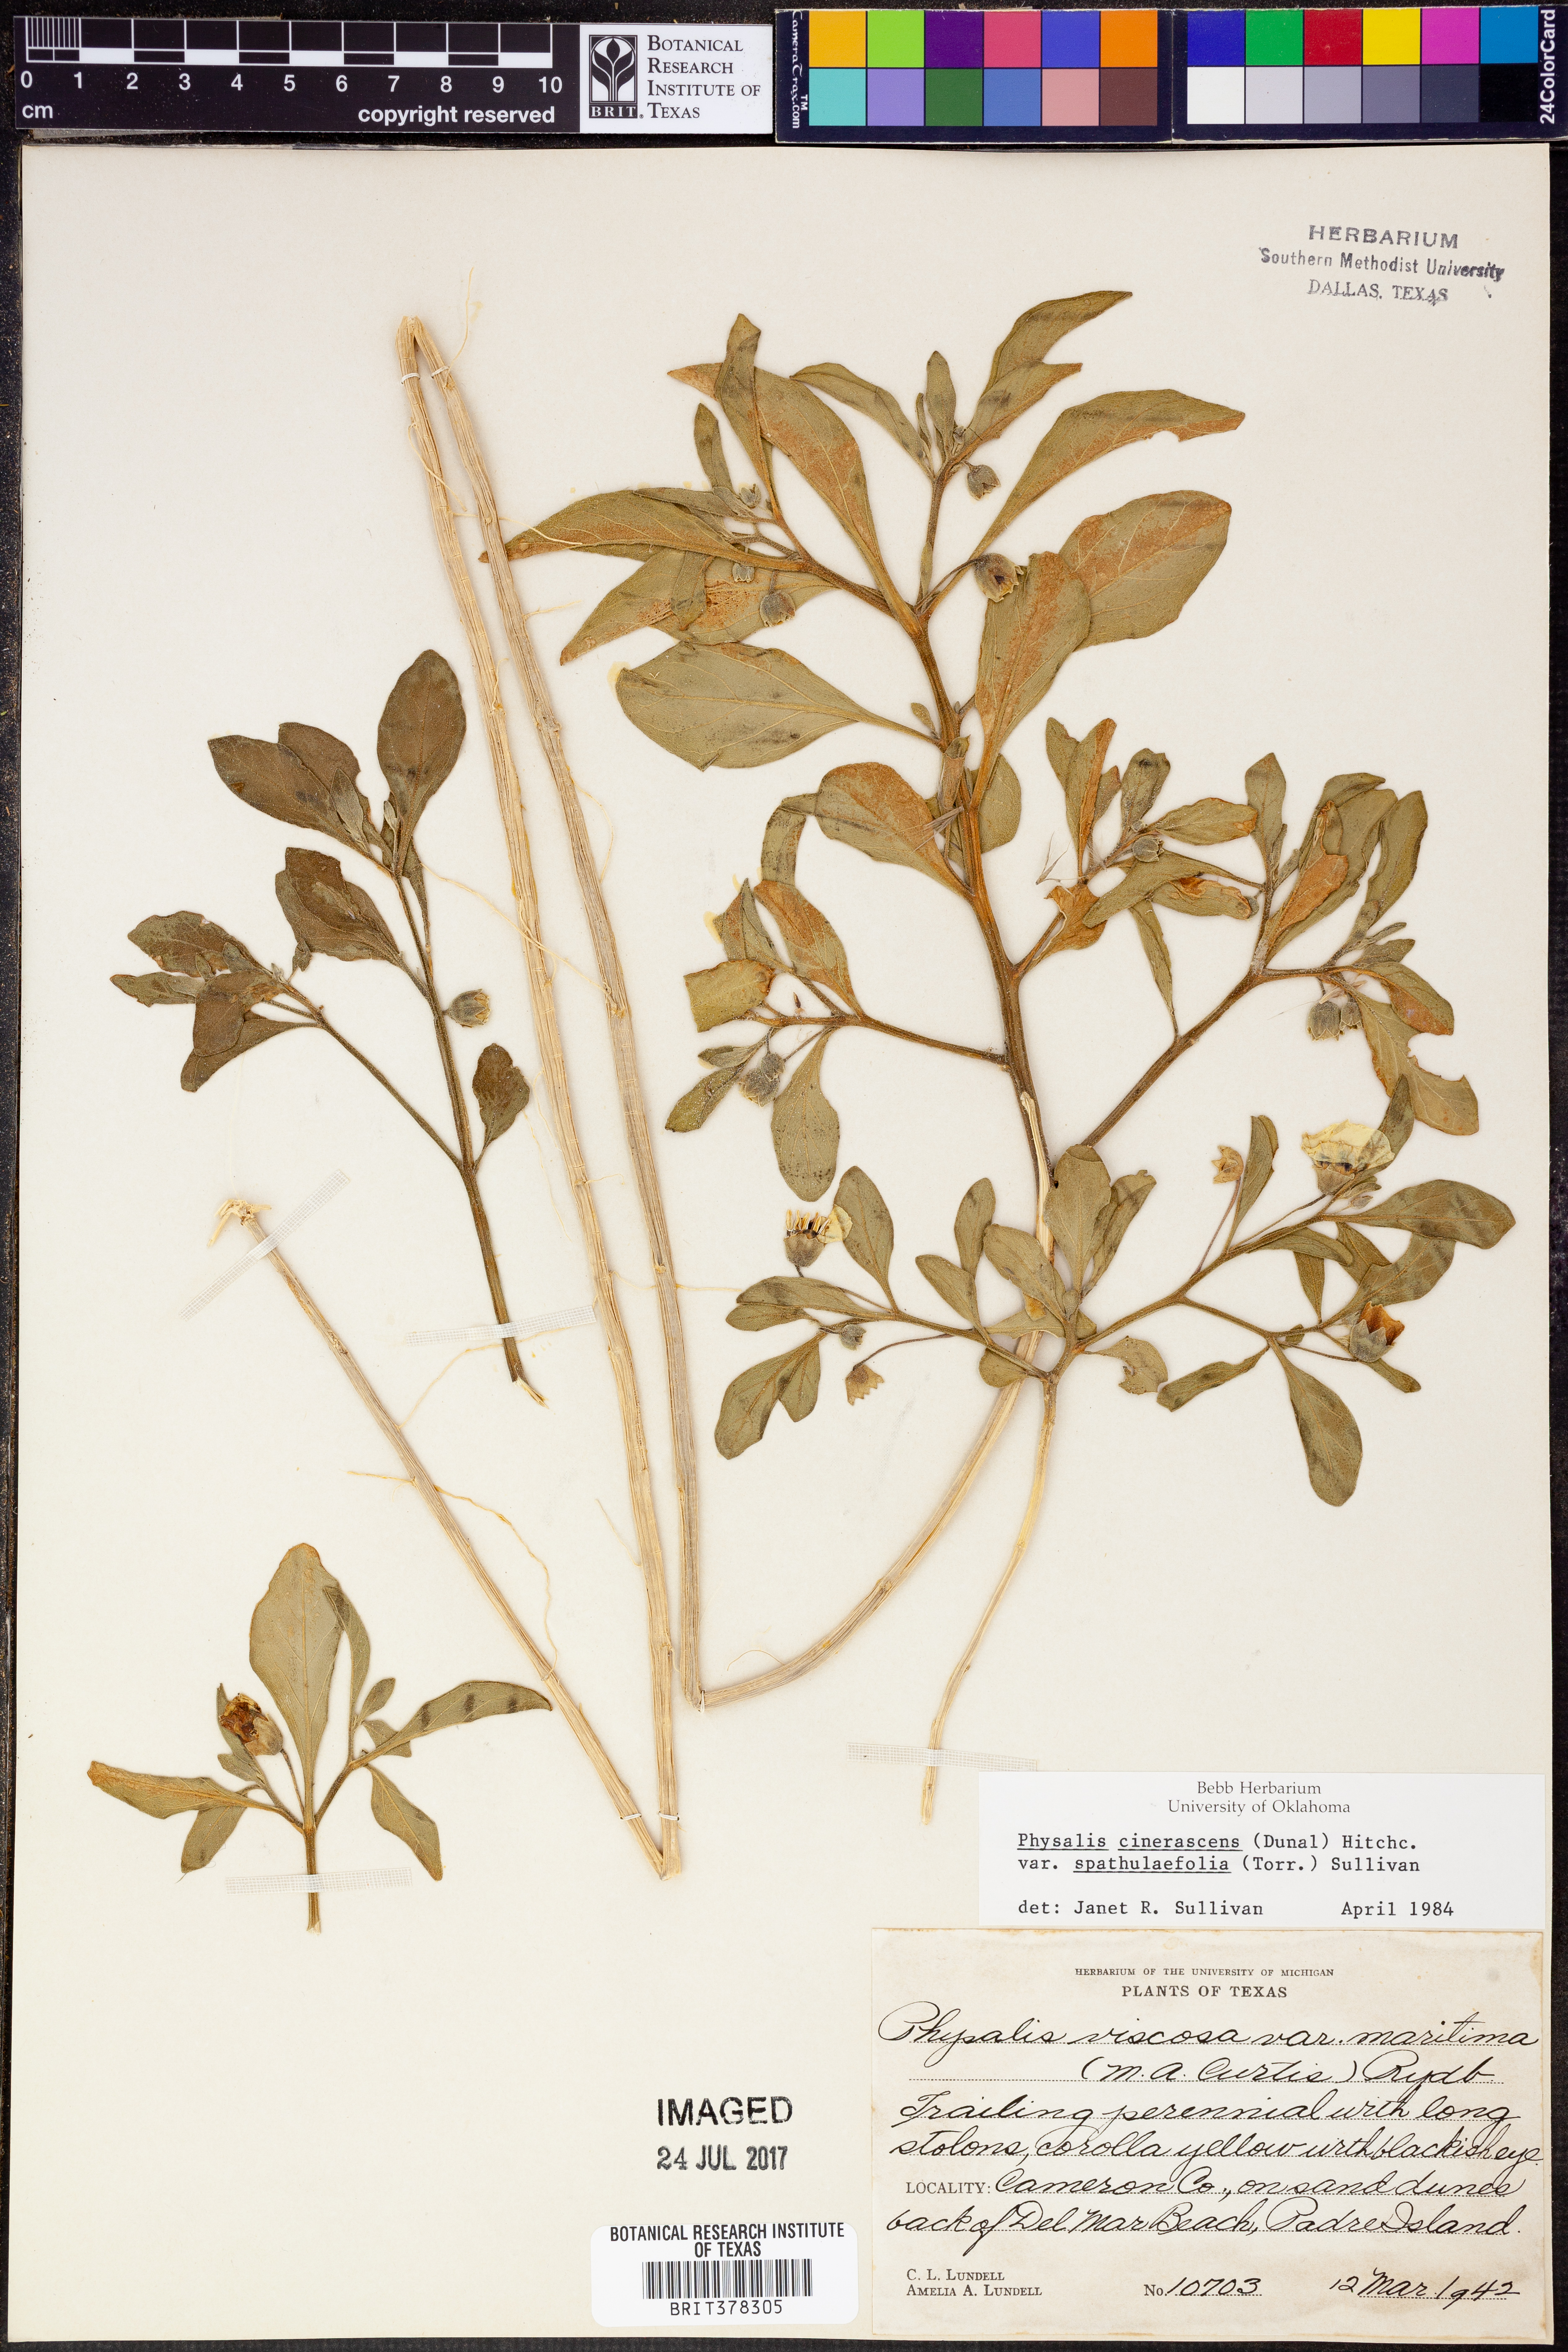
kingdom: Plantae
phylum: Tracheophyta
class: Magnoliopsida
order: Solanales
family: Solanaceae
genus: Physalis
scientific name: Physalis cinerascens
